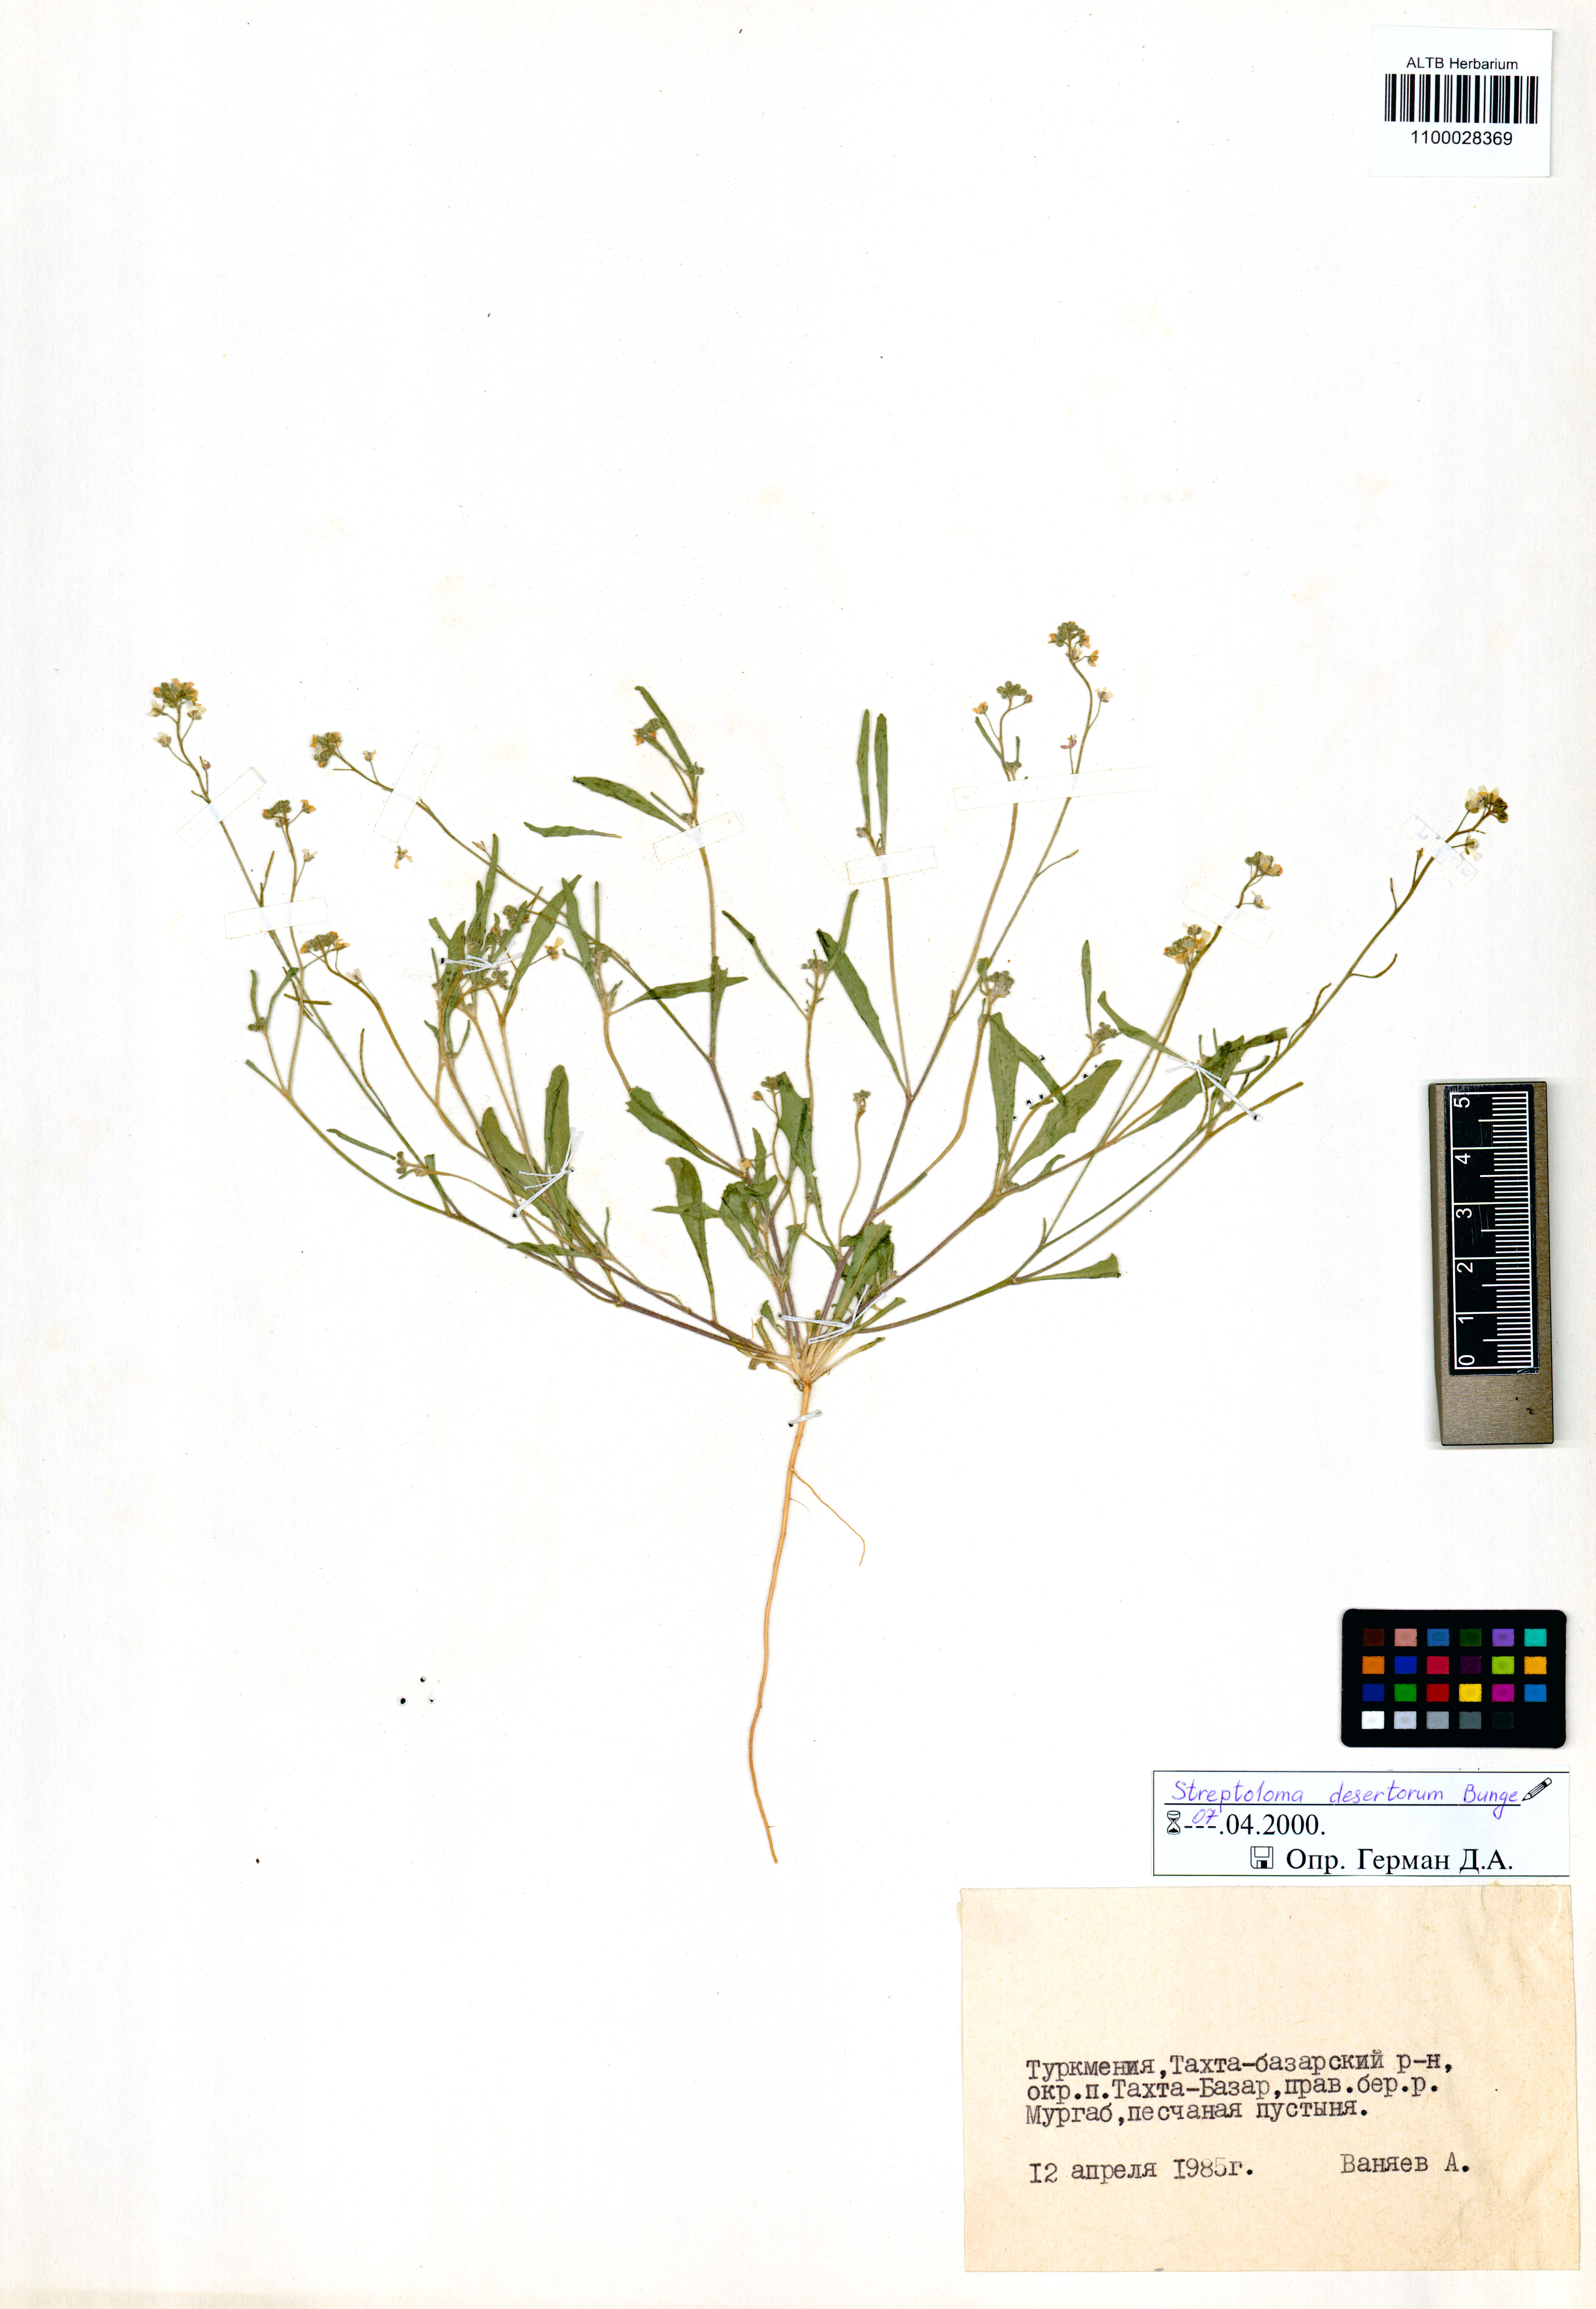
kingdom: Plantae
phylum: Tracheophyta
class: Magnoliopsida
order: Brassicales
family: Brassicaceae
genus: Streptoloma
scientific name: Streptoloma desertorum
